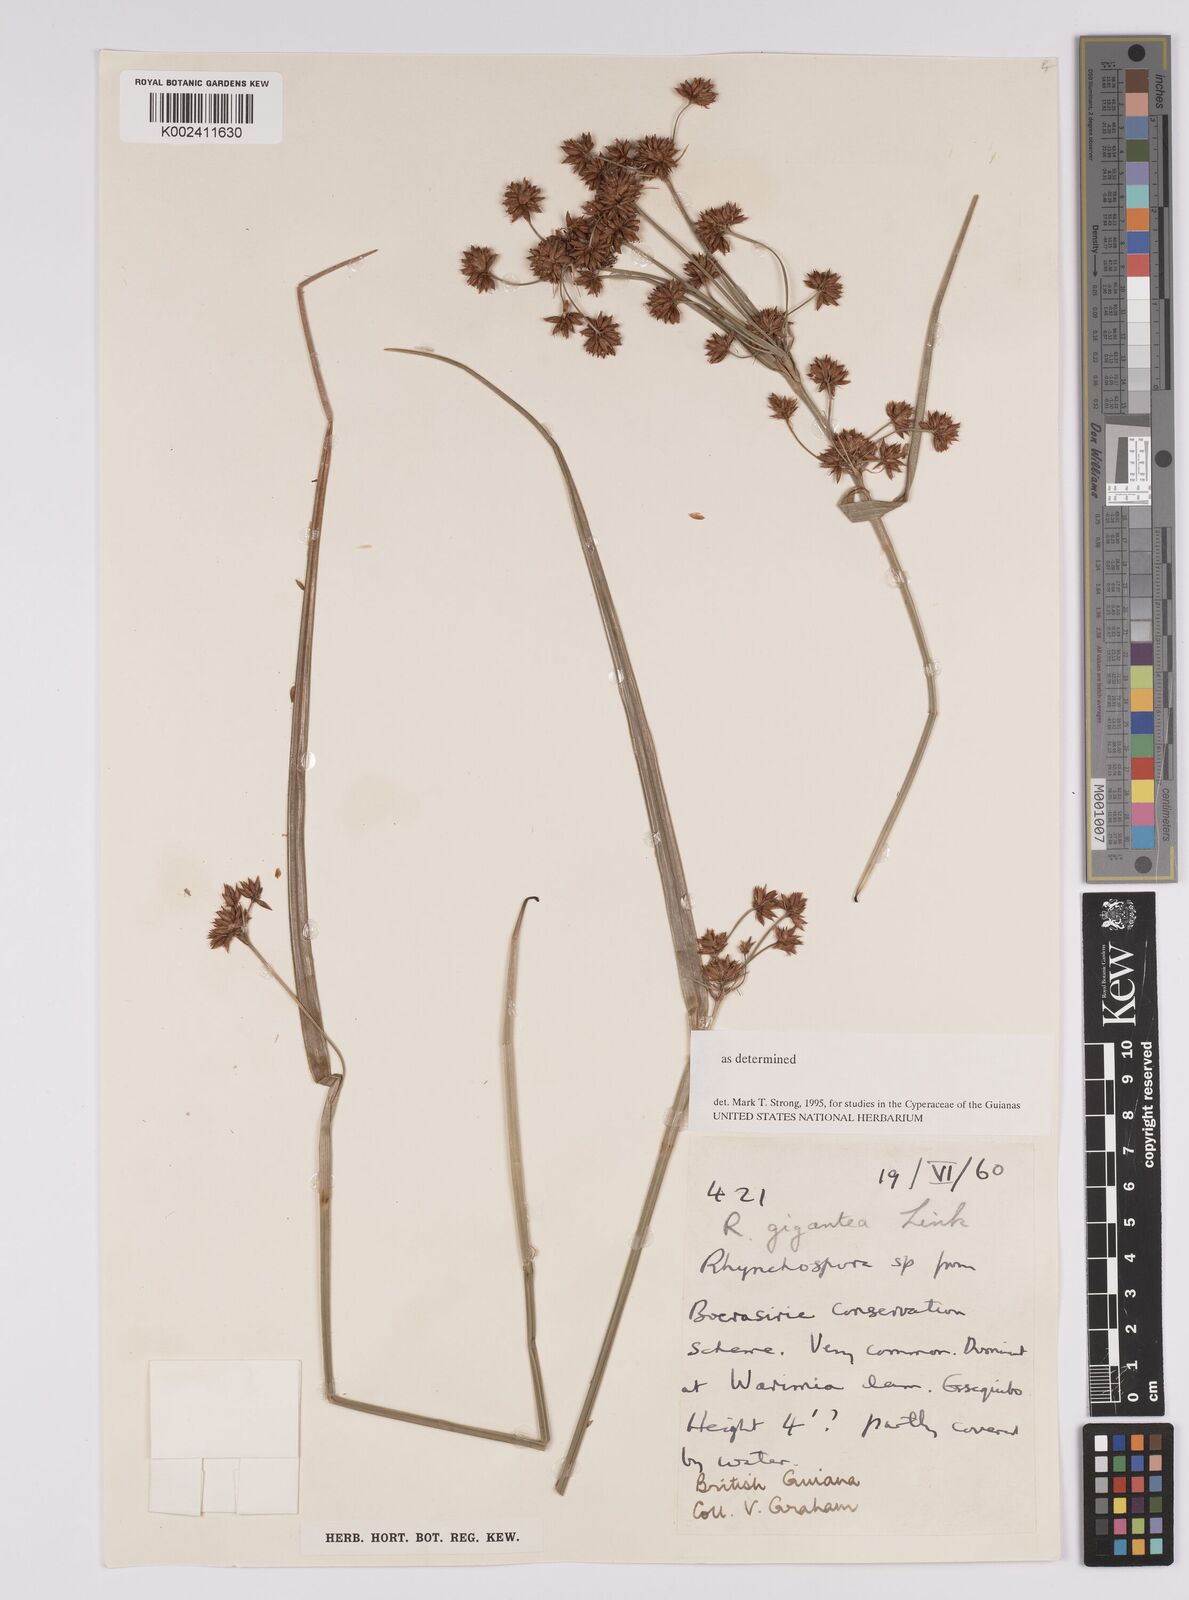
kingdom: Plantae
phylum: Tracheophyta
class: Liliopsida
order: Poales
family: Cyperaceae
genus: Rhynchospora
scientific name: Rhynchospora gigantea
